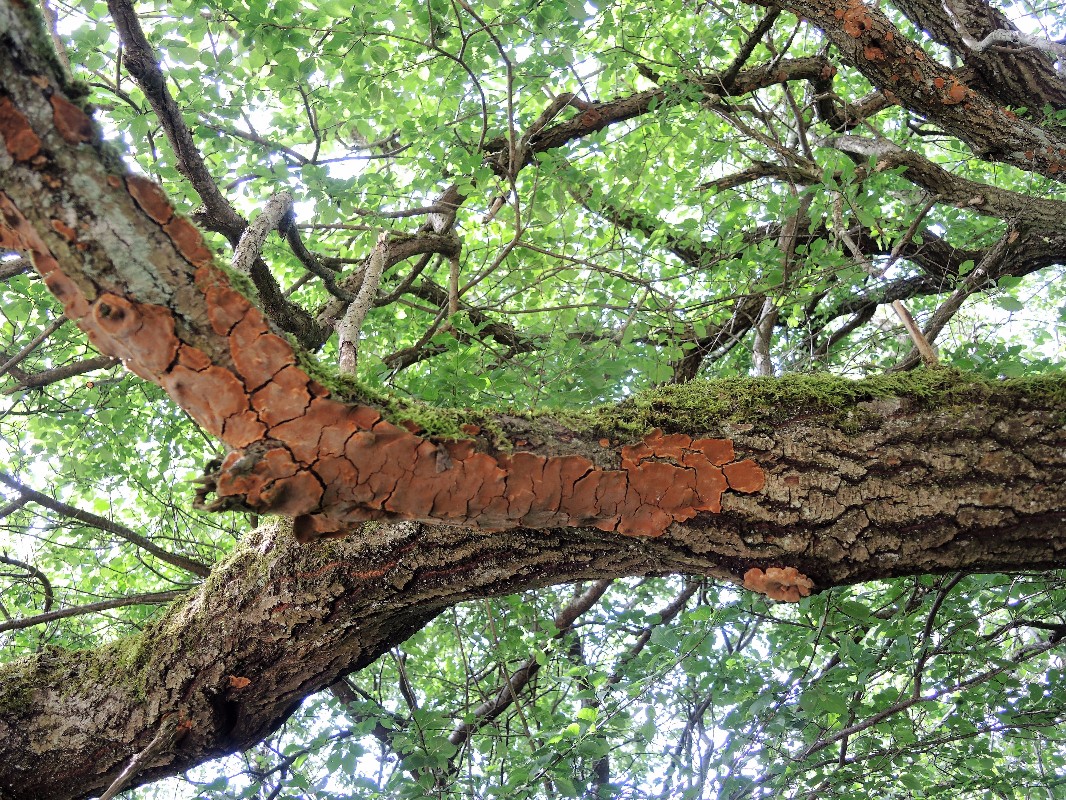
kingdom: Fungi
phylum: Basidiomycota
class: Agaricomycetes
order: Hymenochaetales
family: Hymenochaetaceae
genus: Fuscoporia
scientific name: Fuscoporia ferrea
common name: skorpe-ildporesvamp
